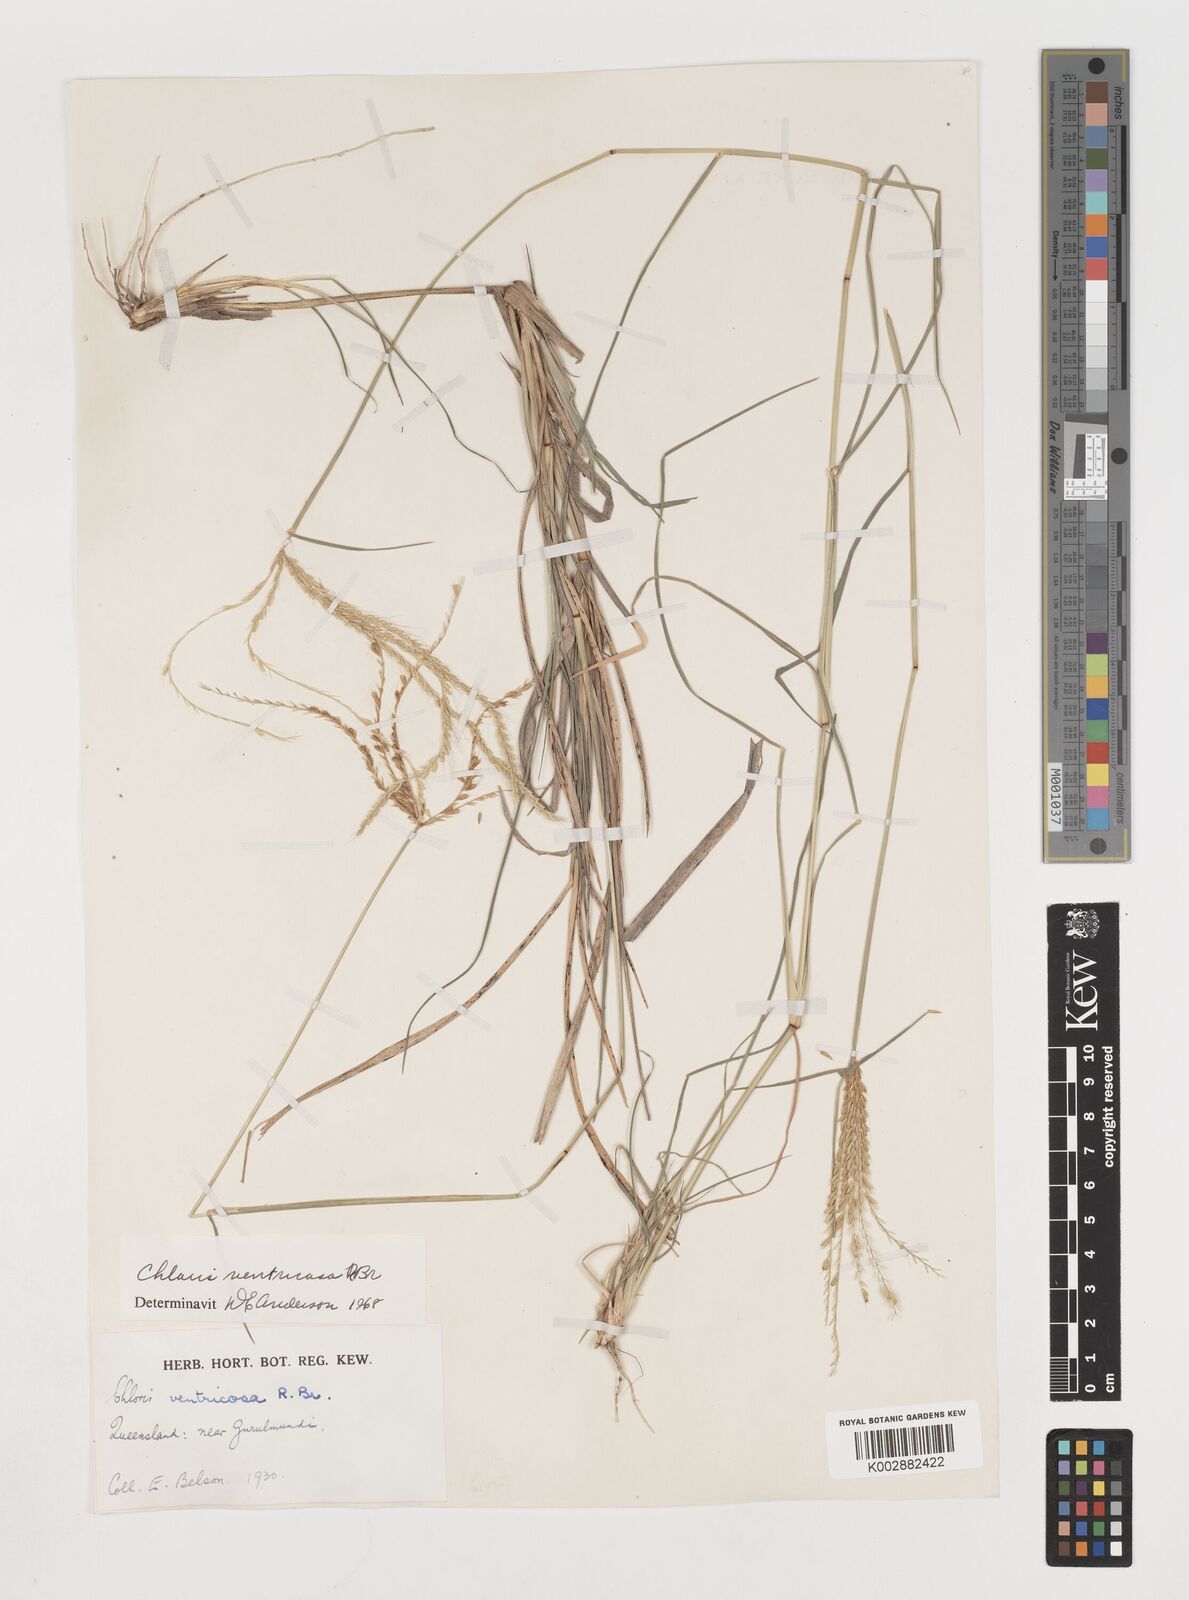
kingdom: Plantae
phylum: Tracheophyta
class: Liliopsida
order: Poales
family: Poaceae
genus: Chloris
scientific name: Chloris ventricosa
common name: Australian windmill grass
